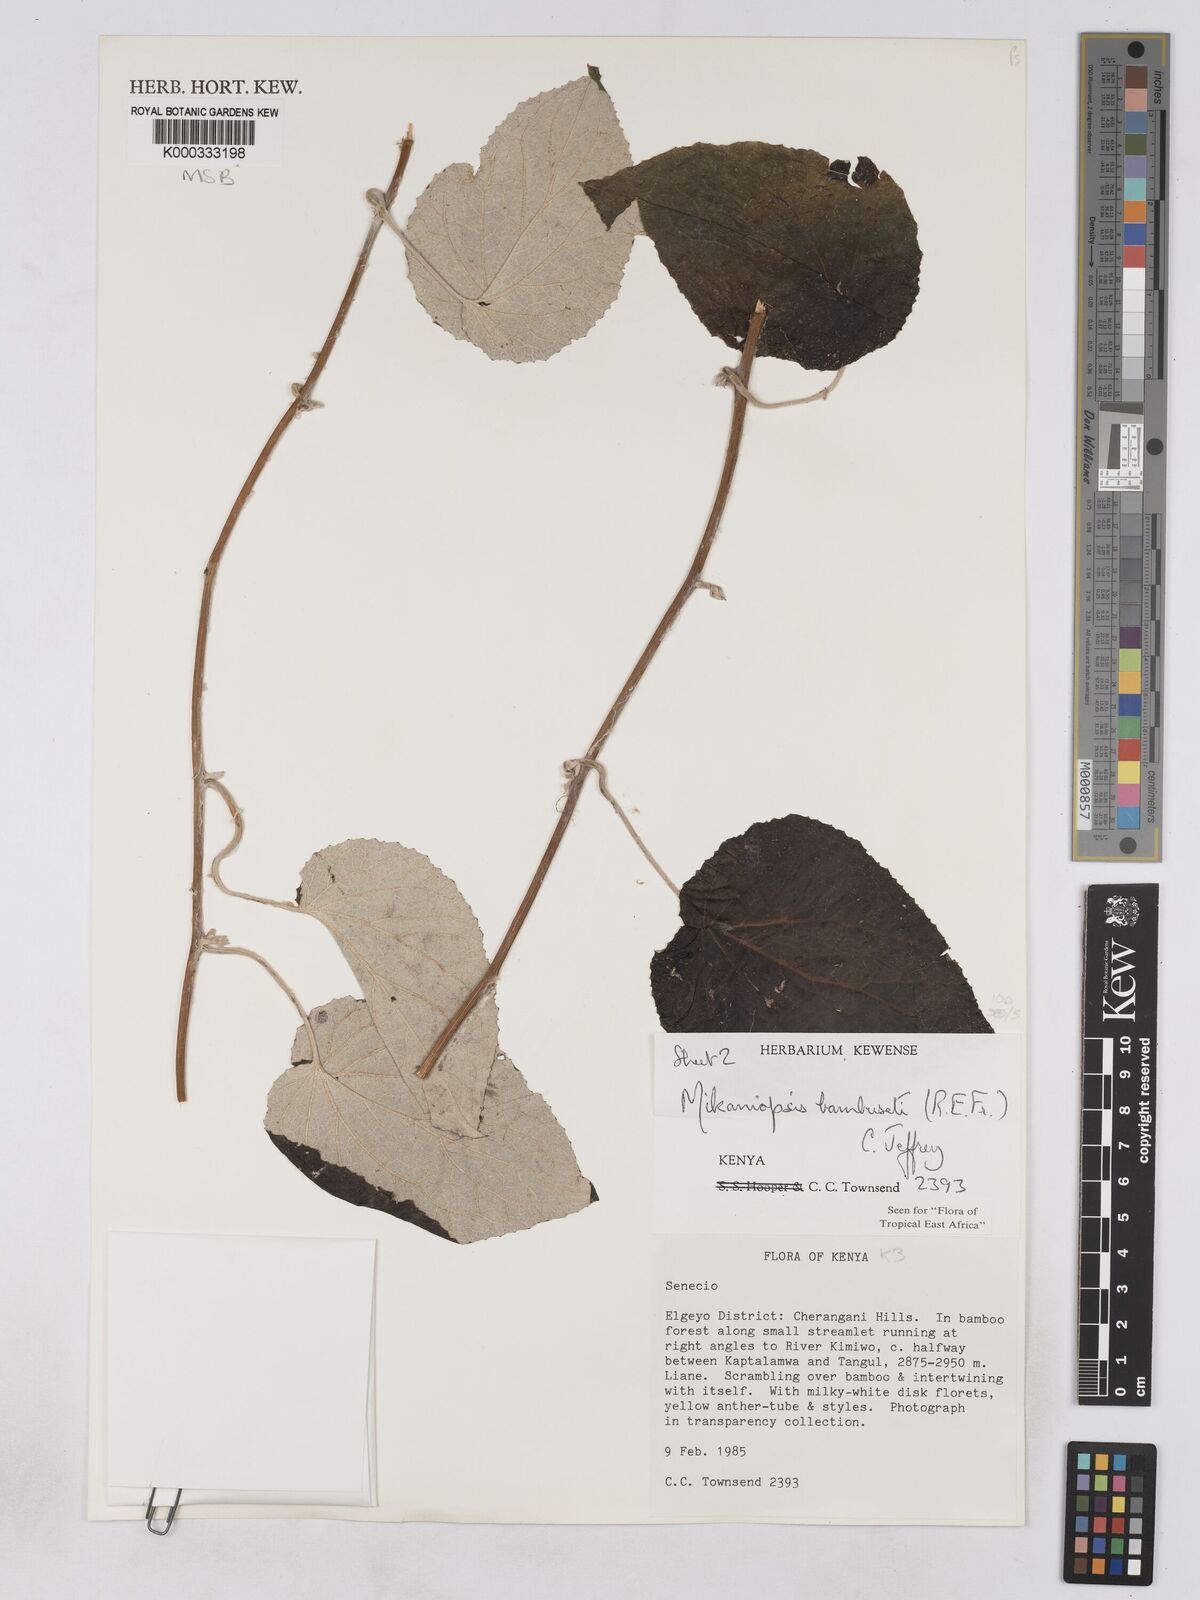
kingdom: Plantae
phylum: Tracheophyta
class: Magnoliopsida
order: Asterales
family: Asteraceae
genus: Mikaniopsis
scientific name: Mikaniopsis bambuseti
